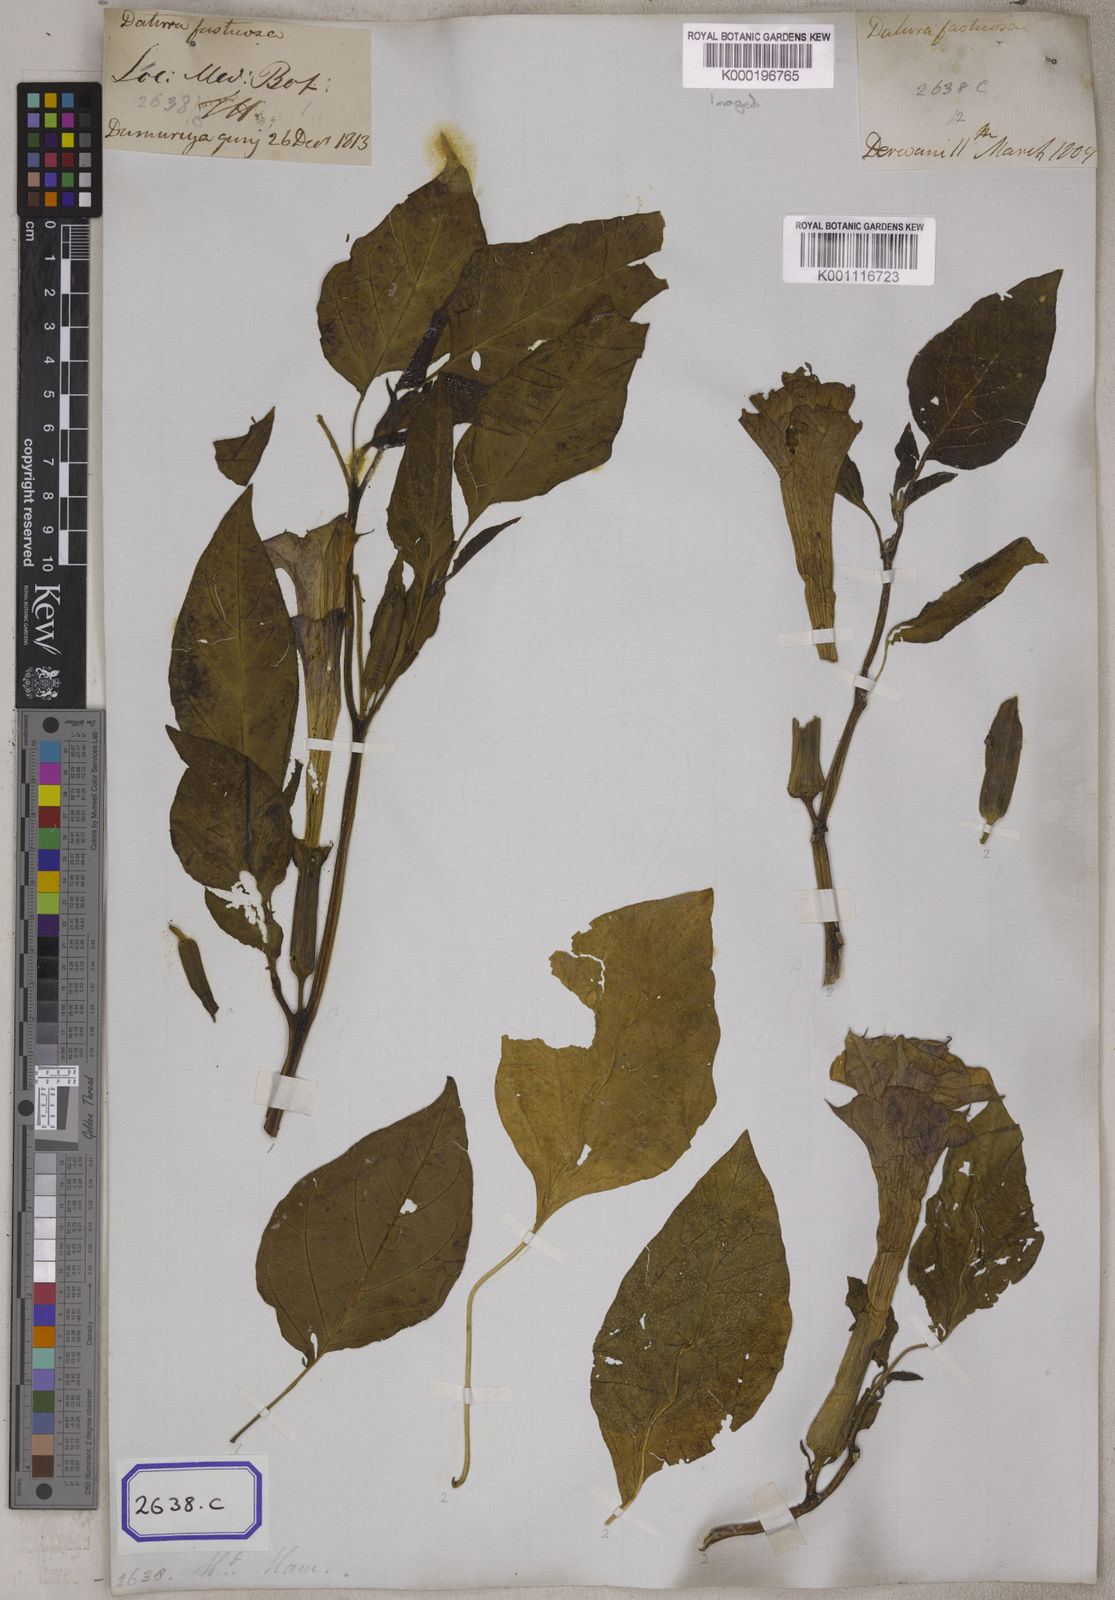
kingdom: Plantae
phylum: Tracheophyta
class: Magnoliopsida
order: Solanales
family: Solanaceae
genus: Datura
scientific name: Datura metel
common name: Jimsonweed
